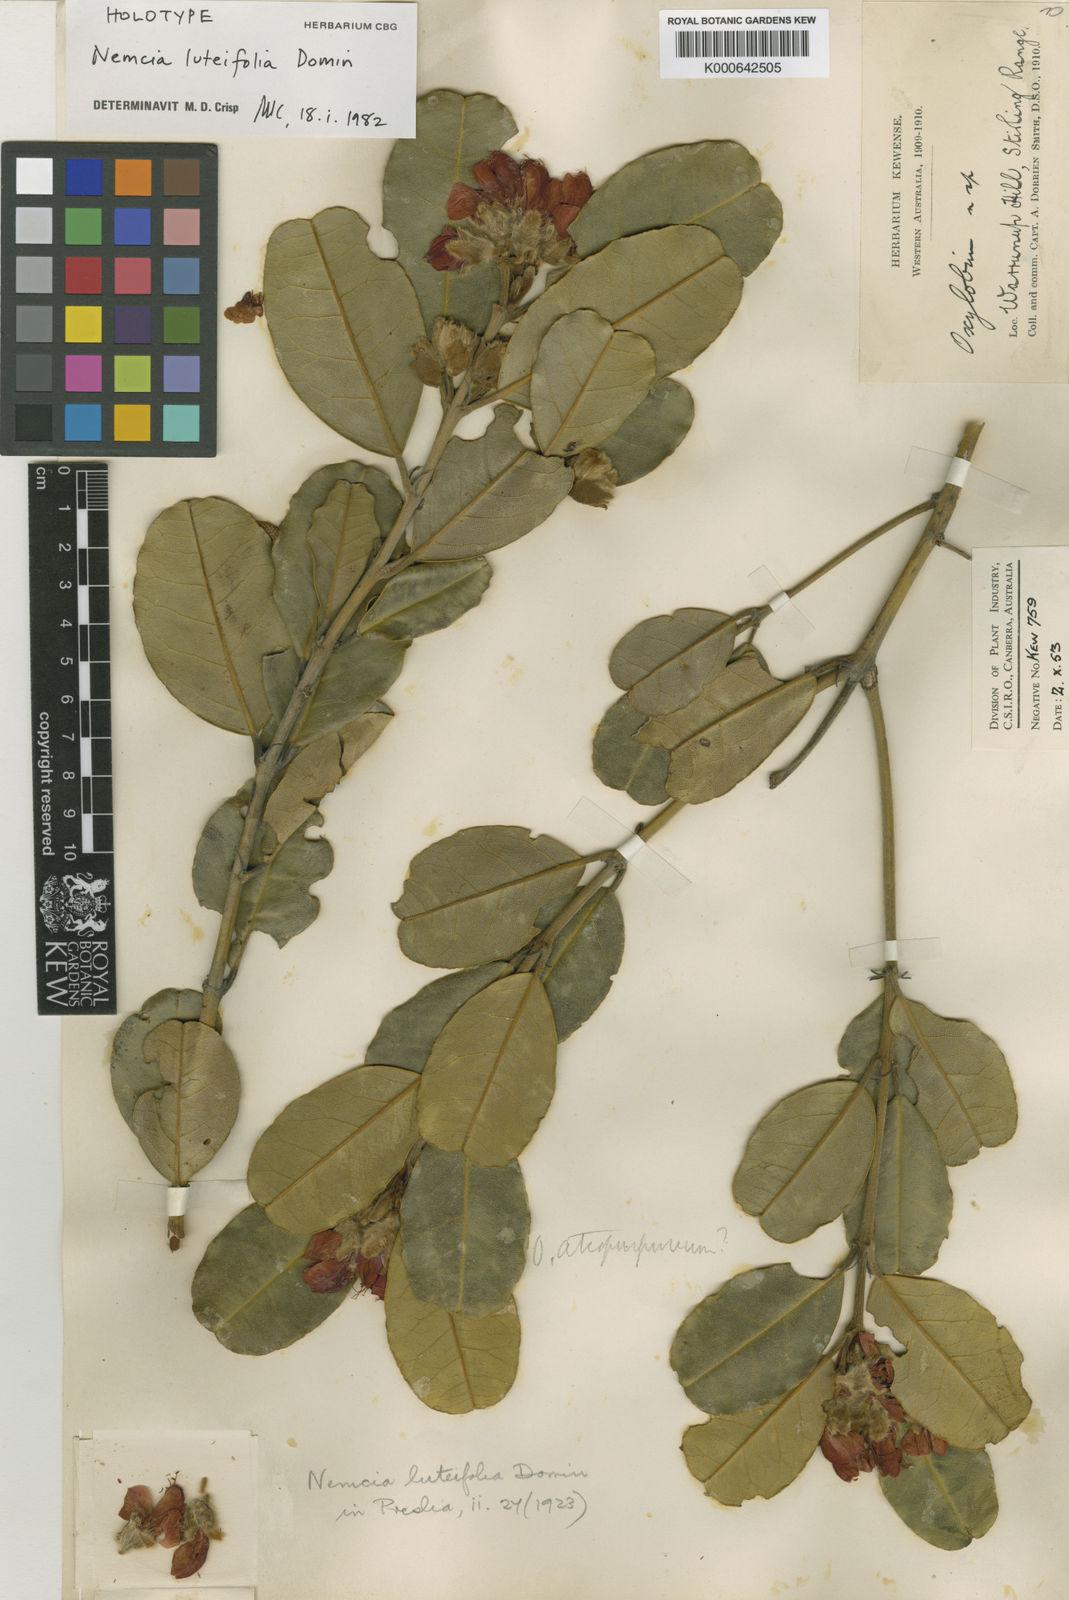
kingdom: Plantae
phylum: Tracheophyta
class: Magnoliopsida
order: Fabales
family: Fabaceae
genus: Gastrolobium
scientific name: Gastrolobium luteifolium
